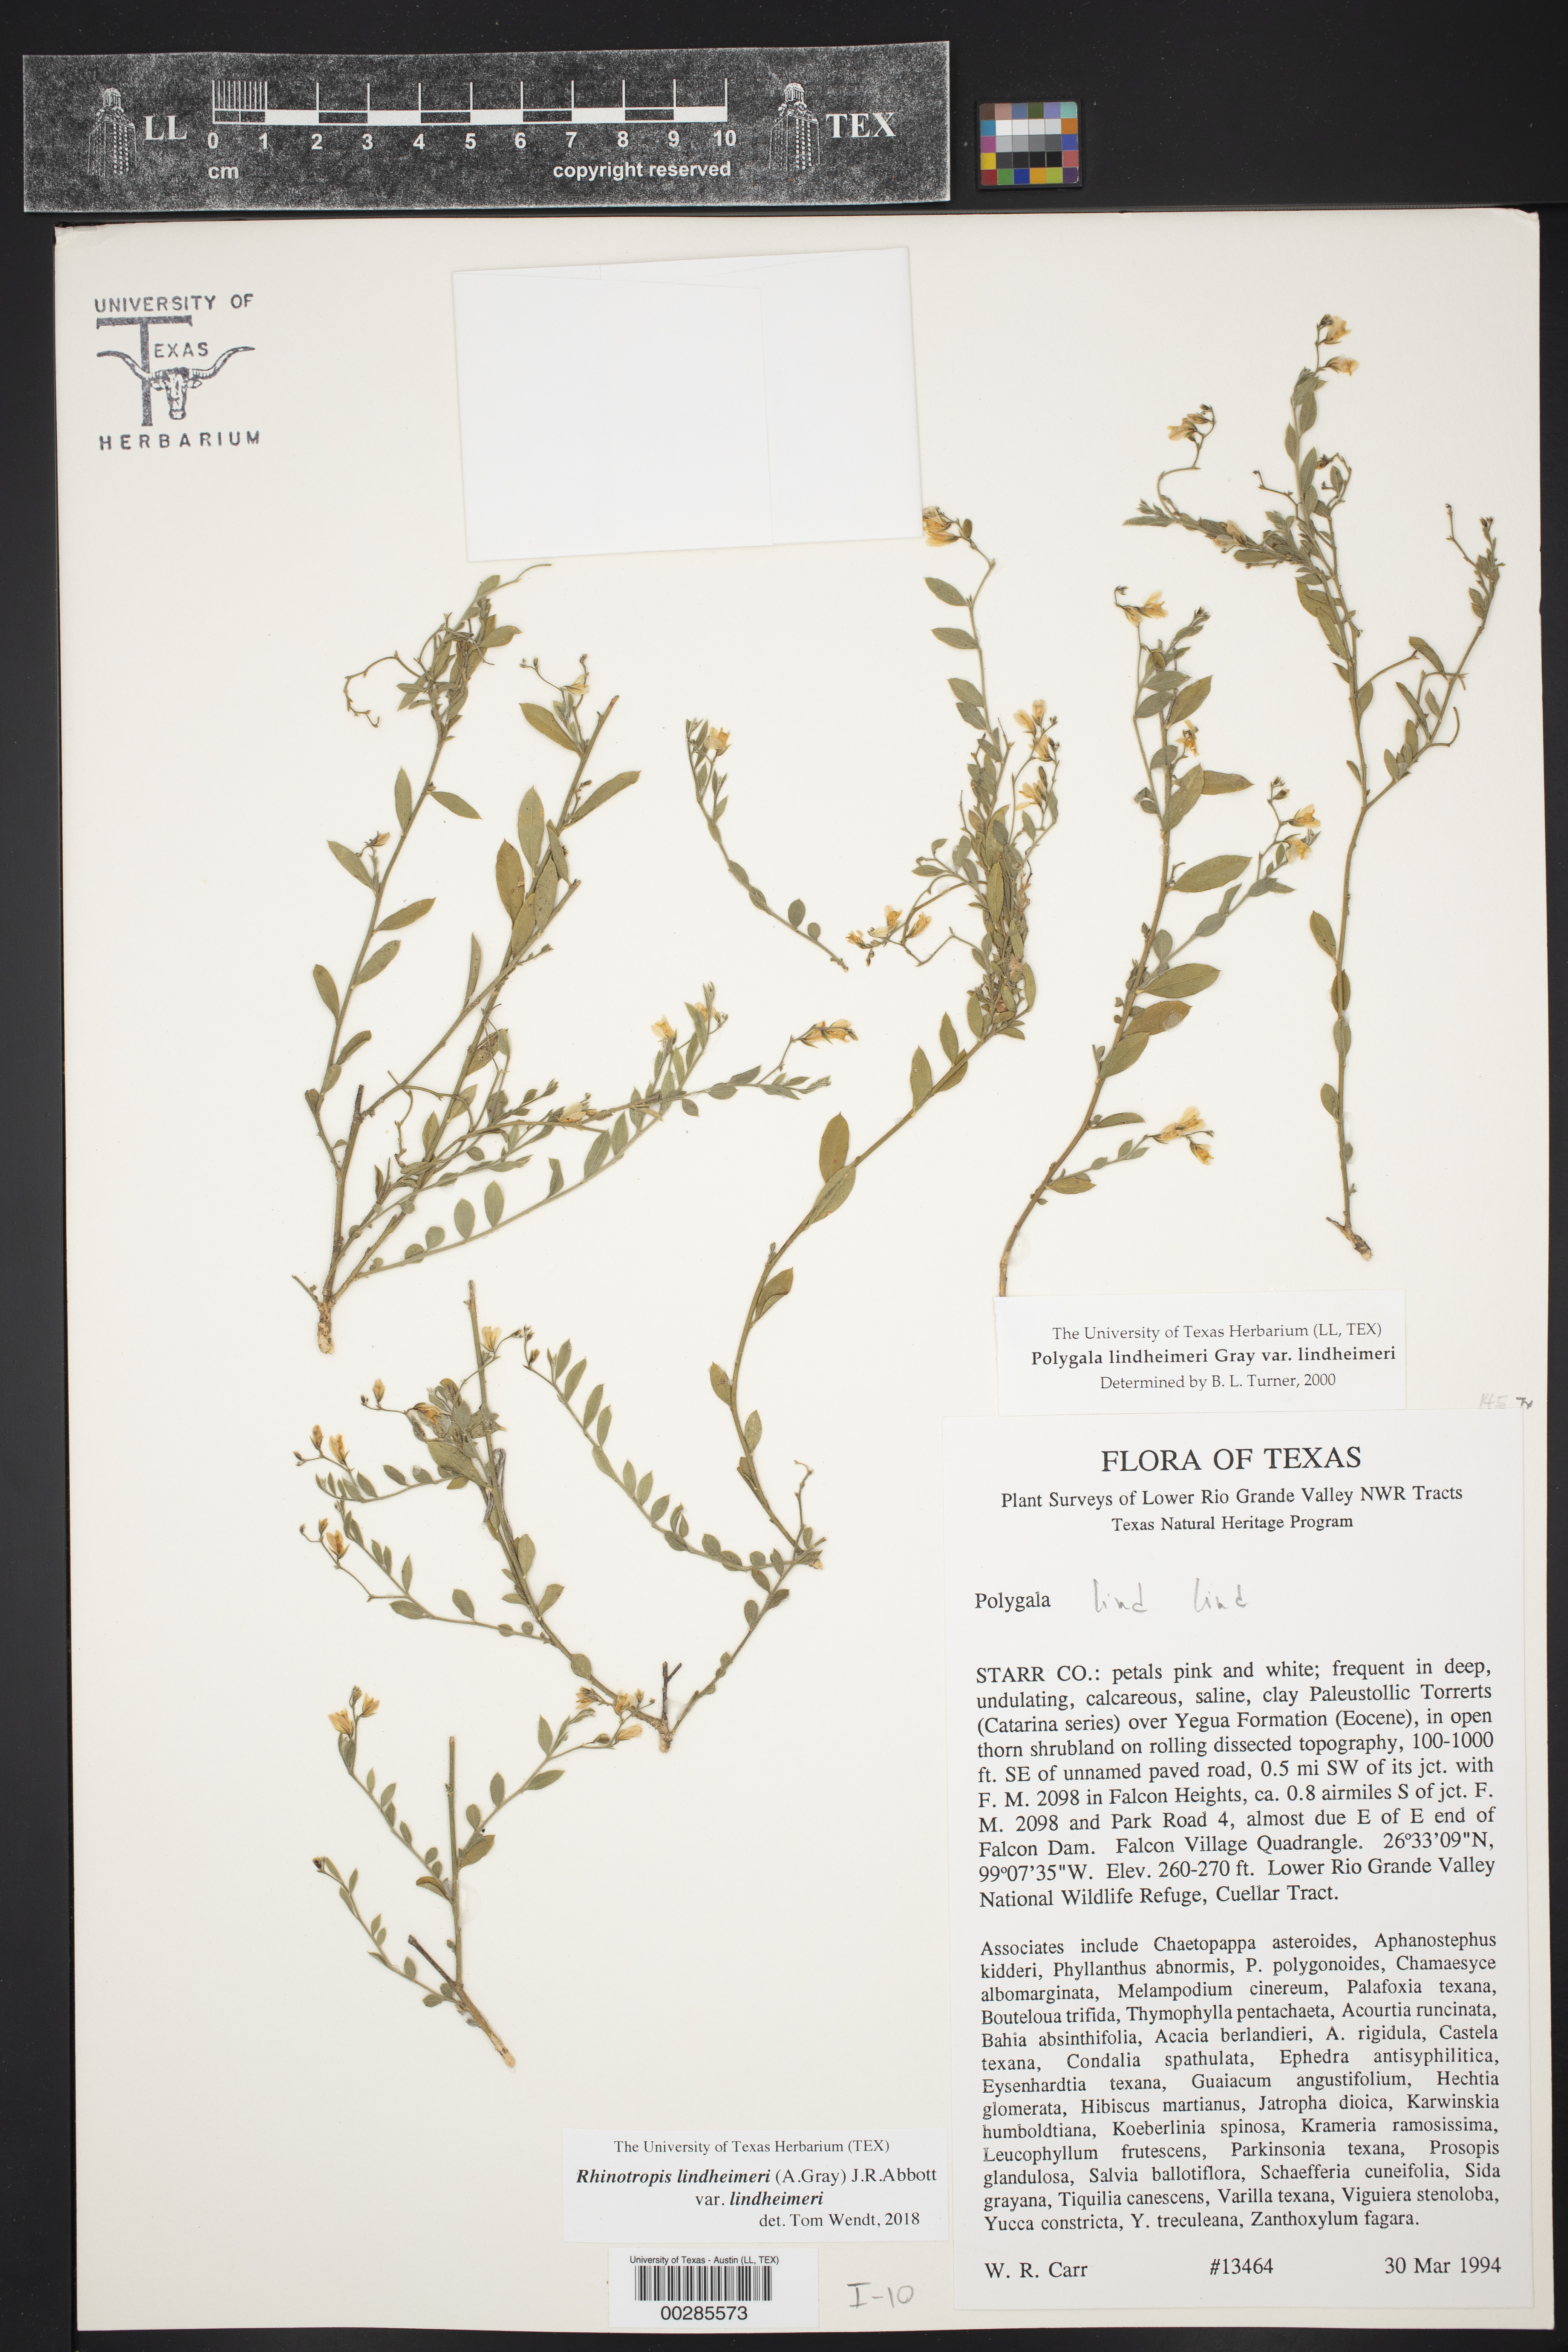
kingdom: Plantae
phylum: Tracheophyta
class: Magnoliopsida
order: Fabales
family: Polygalaceae
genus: Rhinotropis
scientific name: Rhinotropis lindheimeri
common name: Shrubby milkwort
